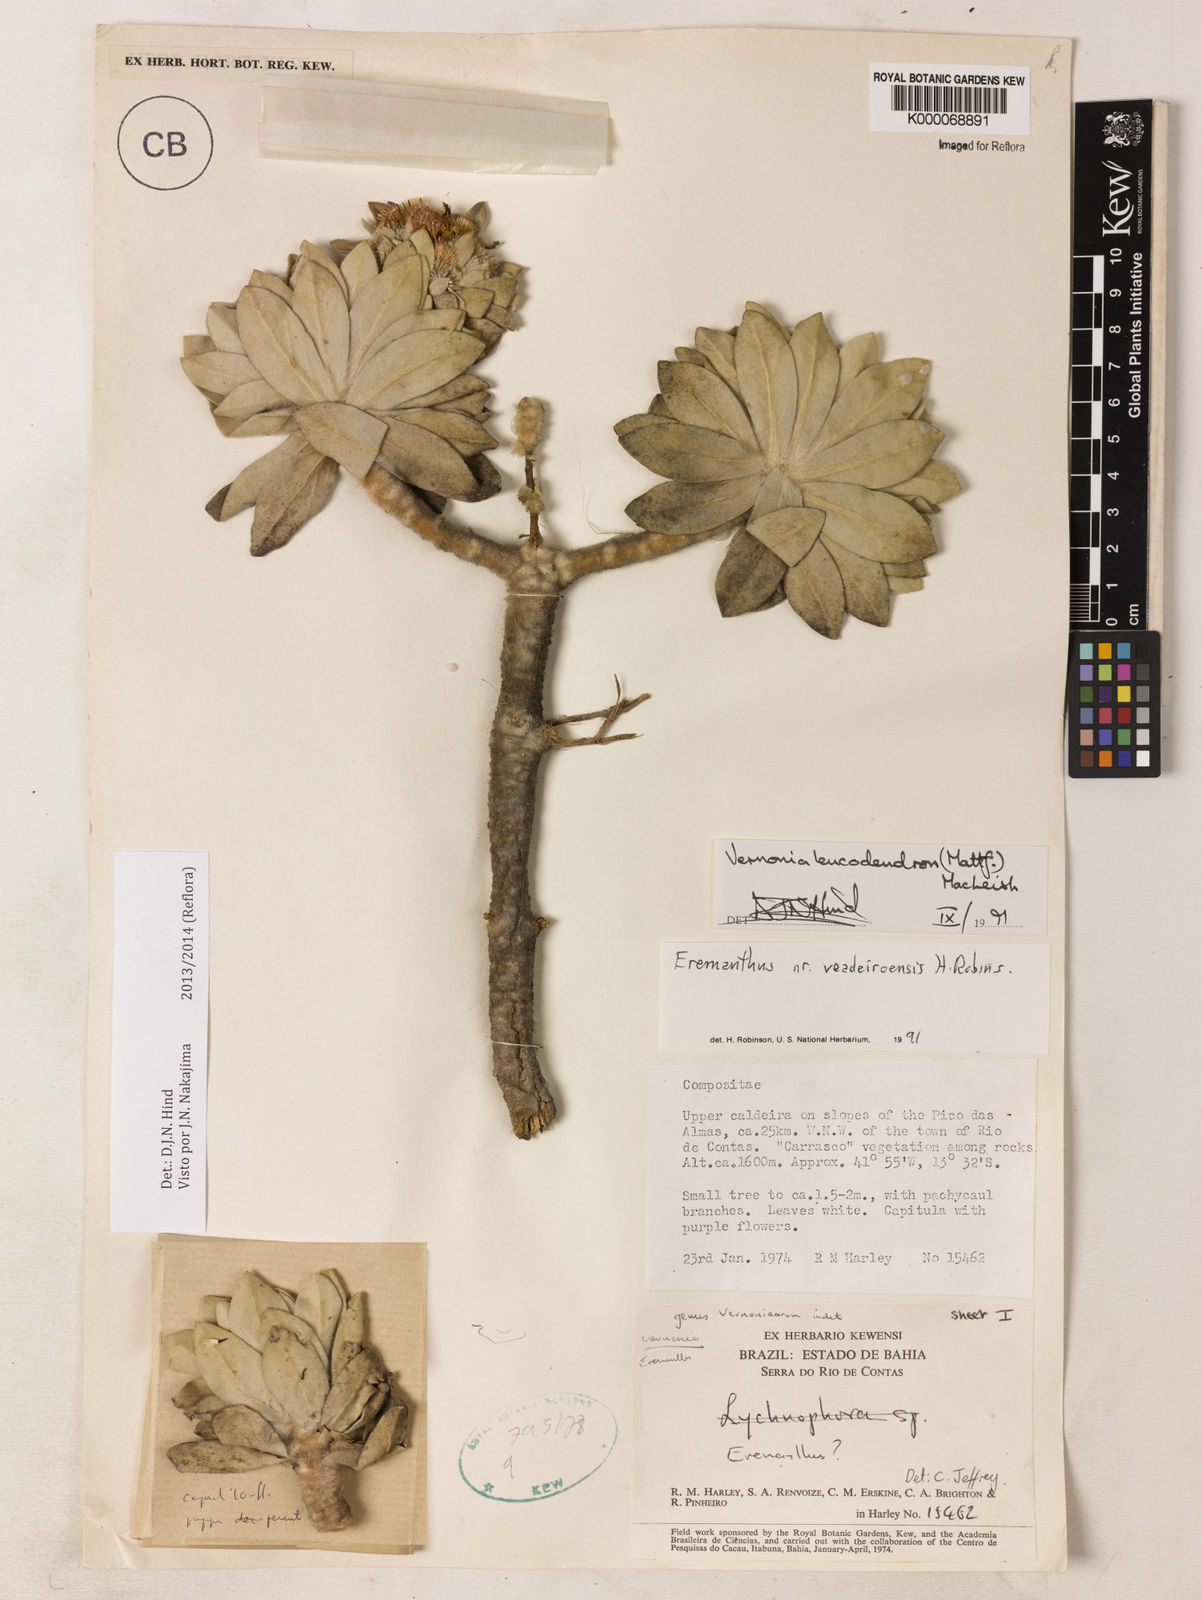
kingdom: Plantae
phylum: Tracheophyta
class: Magnoliopsida
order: Asterales
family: Asteraceae
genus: Lychnophorella
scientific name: Lychnophorella leucodendron
